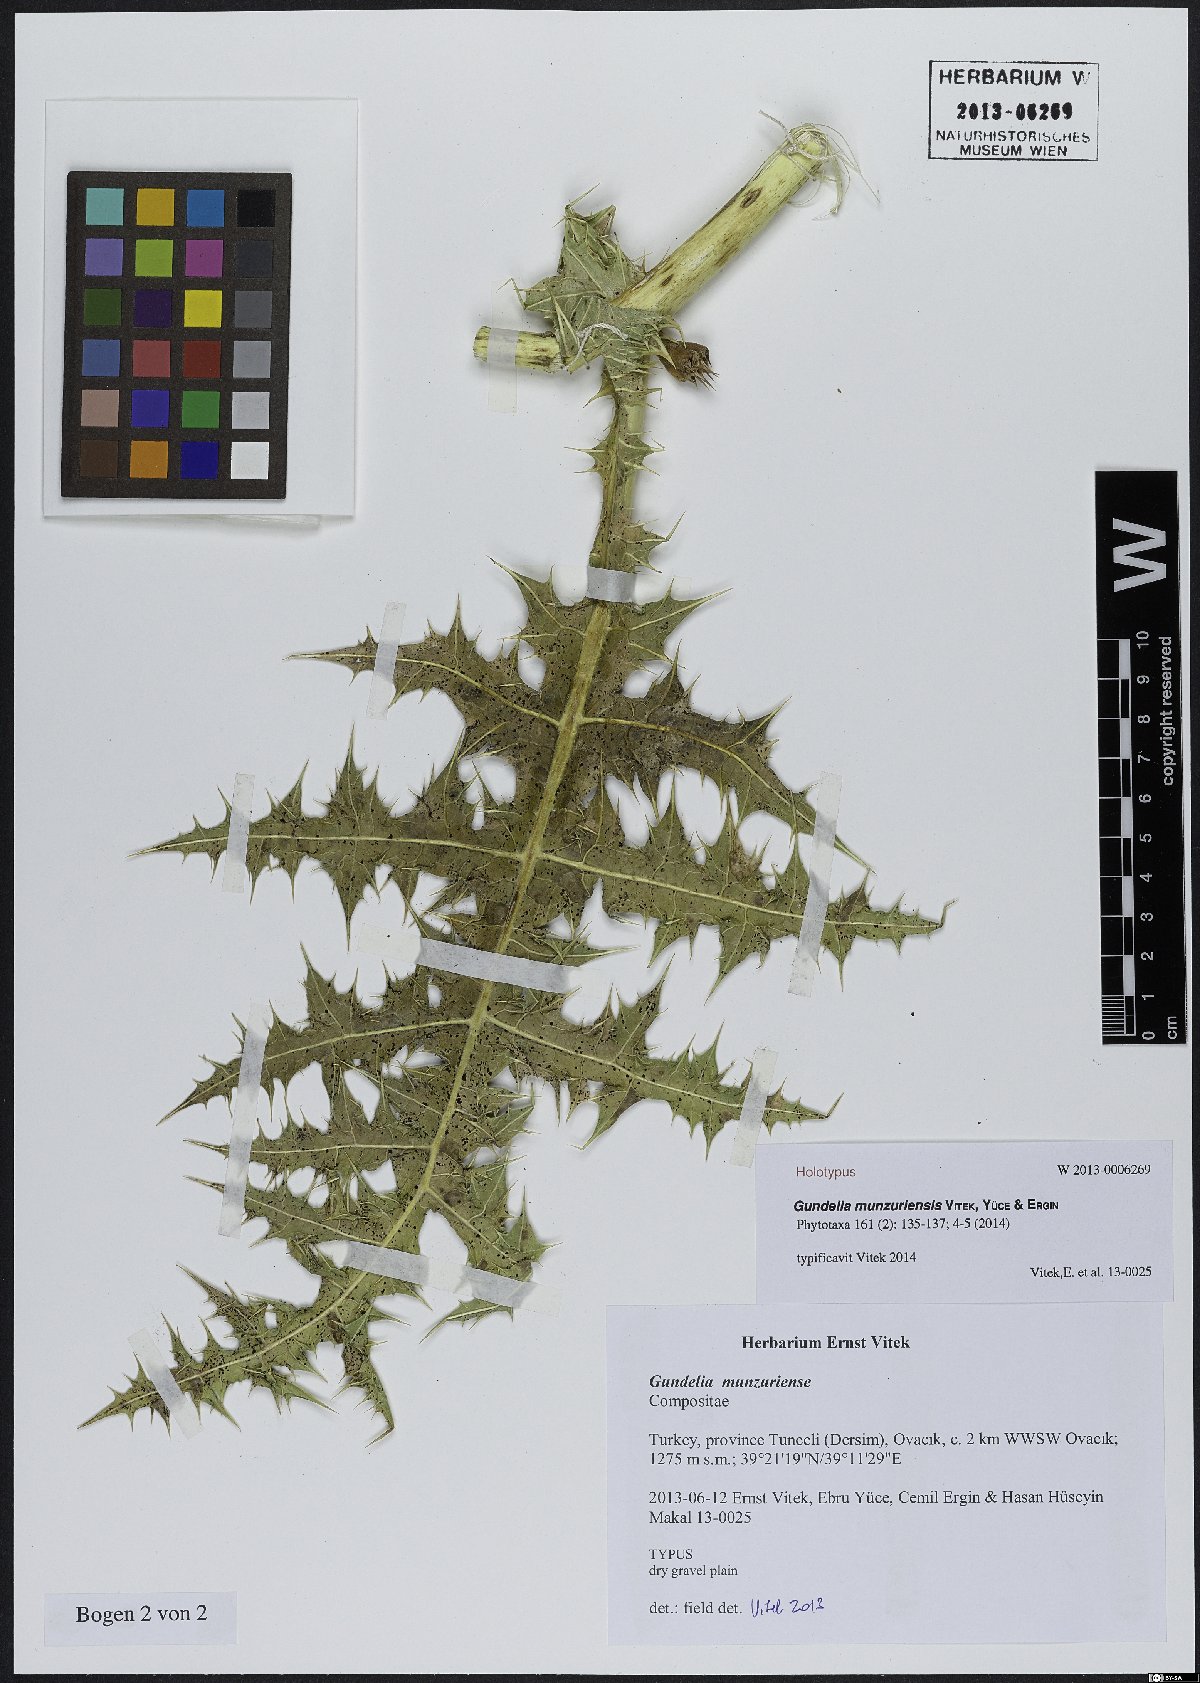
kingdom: Plantae
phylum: Tracheophyta
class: Magnoliopsida
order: Asterales
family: Asteraceae
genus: Gundelia
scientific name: Gundelia munzuriensis
